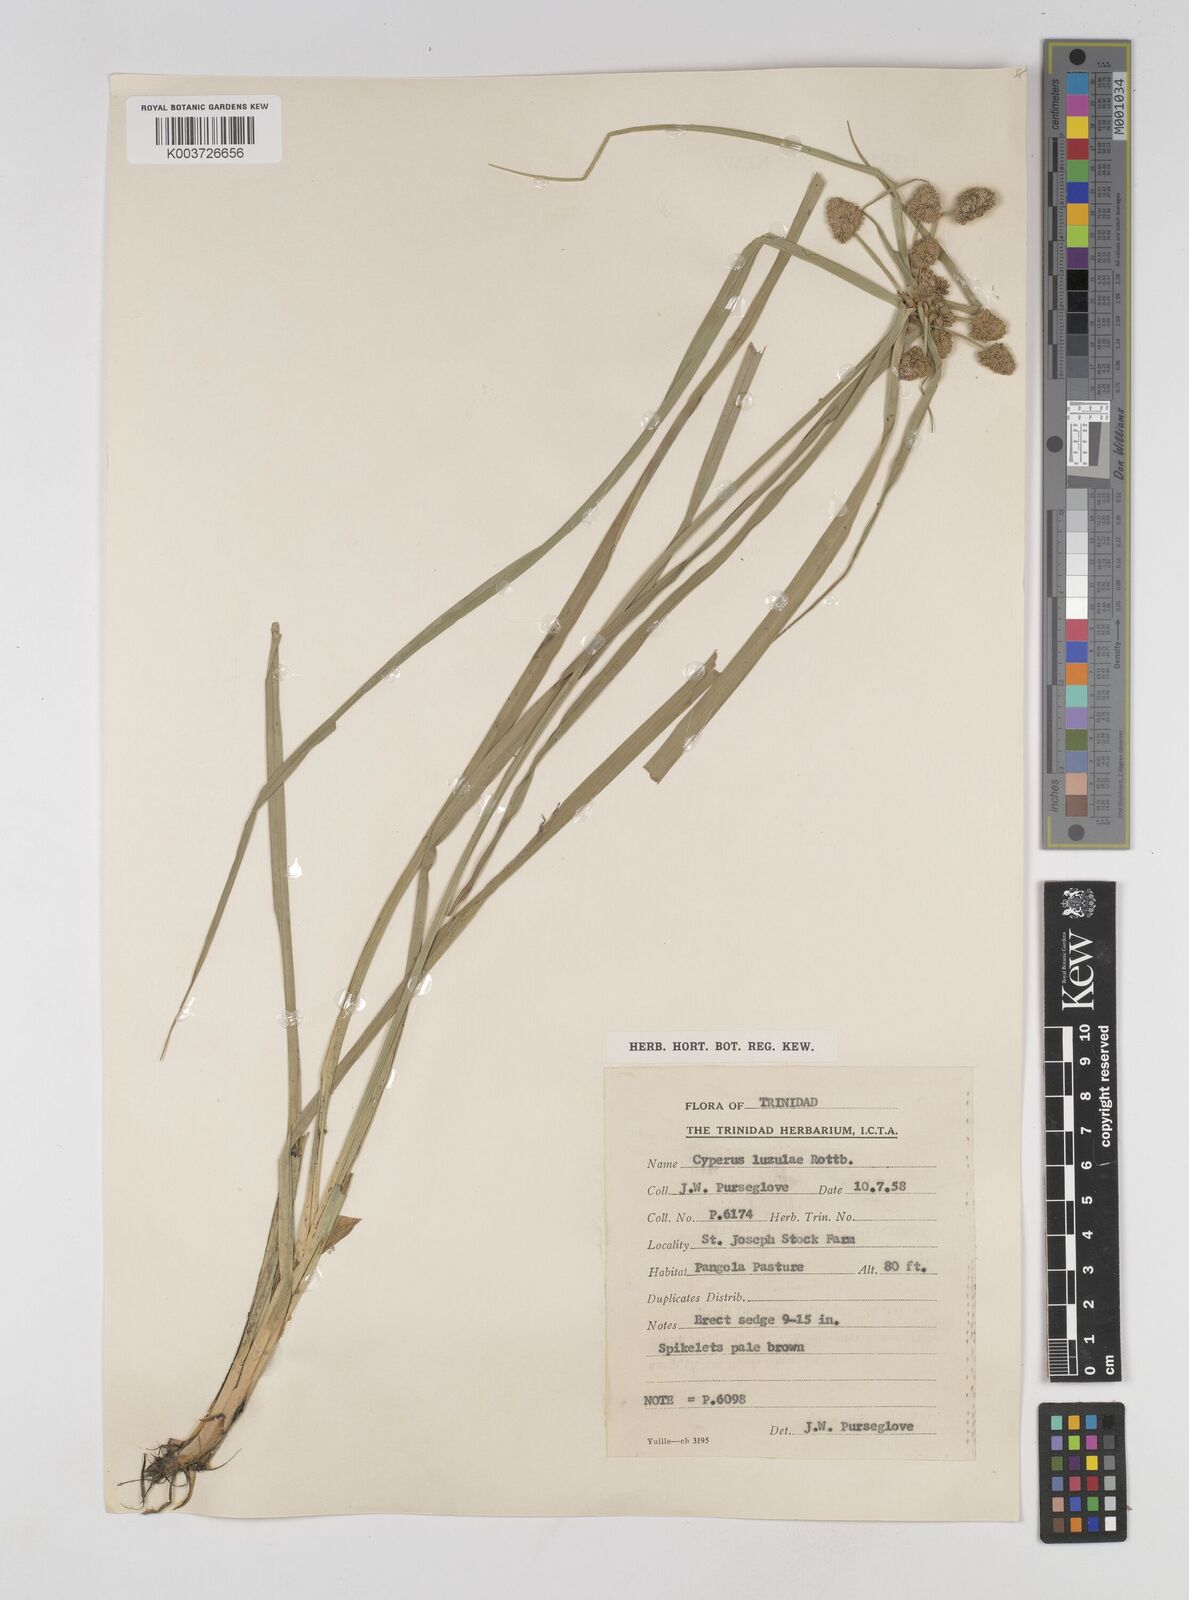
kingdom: Plantae
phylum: Tracheophyta
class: Liliopsida
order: Poales
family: Cyperaceae
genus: Cyperus
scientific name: Cyperus luzulae
